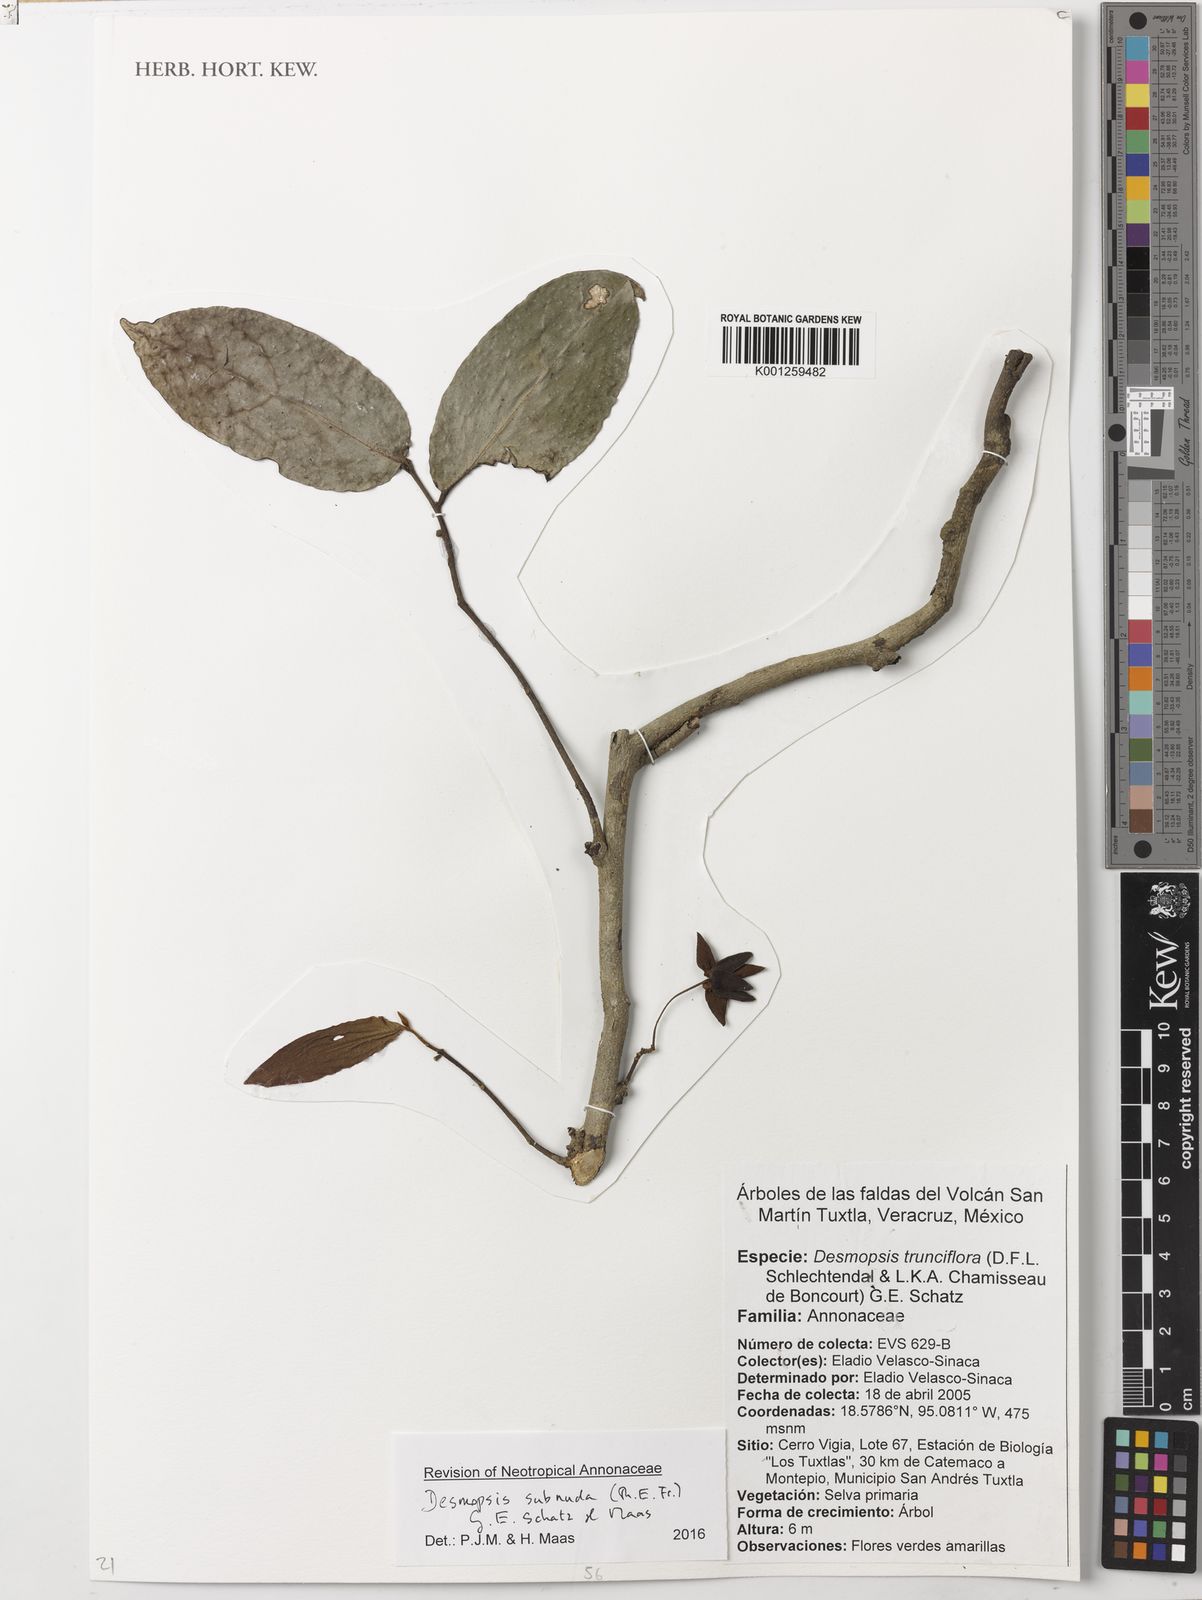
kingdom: Plantae
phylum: Tracheophyta
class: Magnoliopsida
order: Magnoliales
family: Annonaceae
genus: Desmopsis
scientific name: Desmopsis
